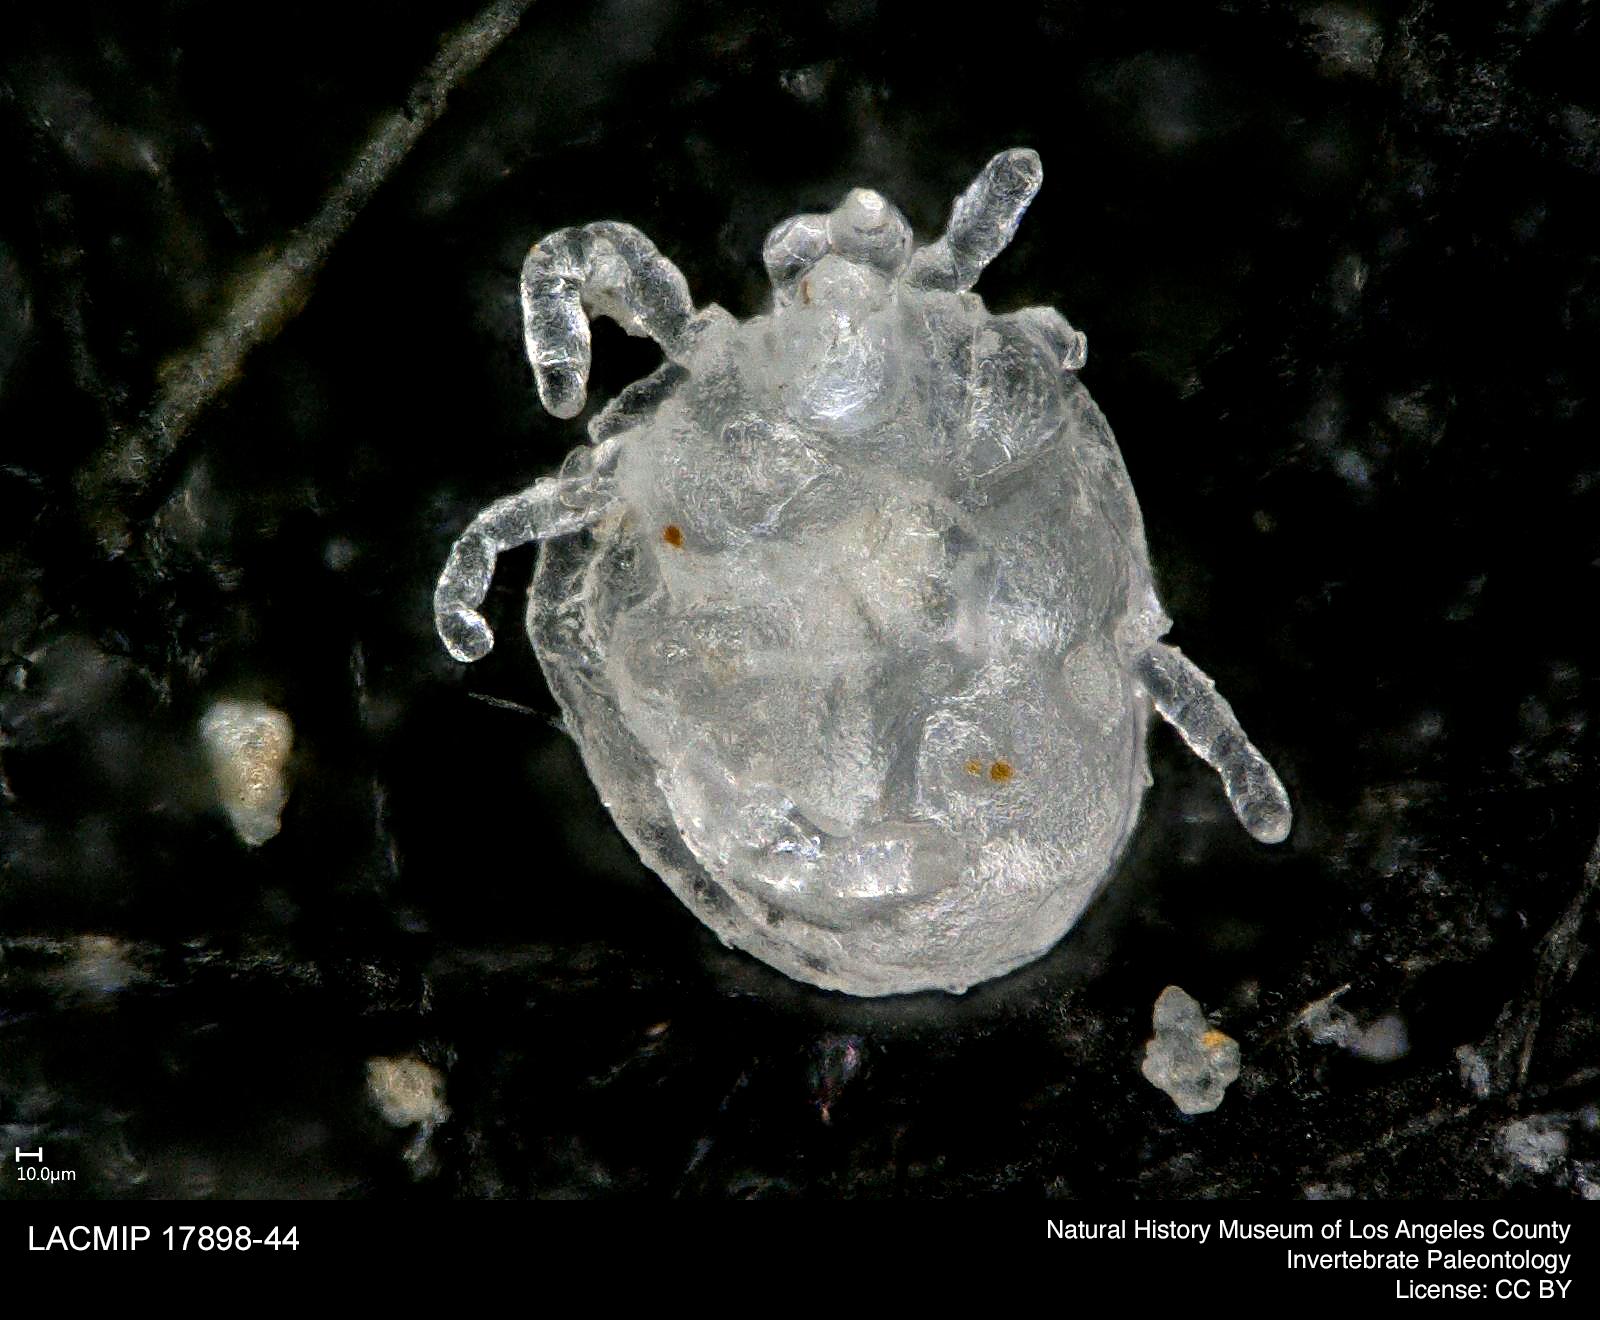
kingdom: Animalia
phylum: Arthropoda
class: Arachnida
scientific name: Arachnida
